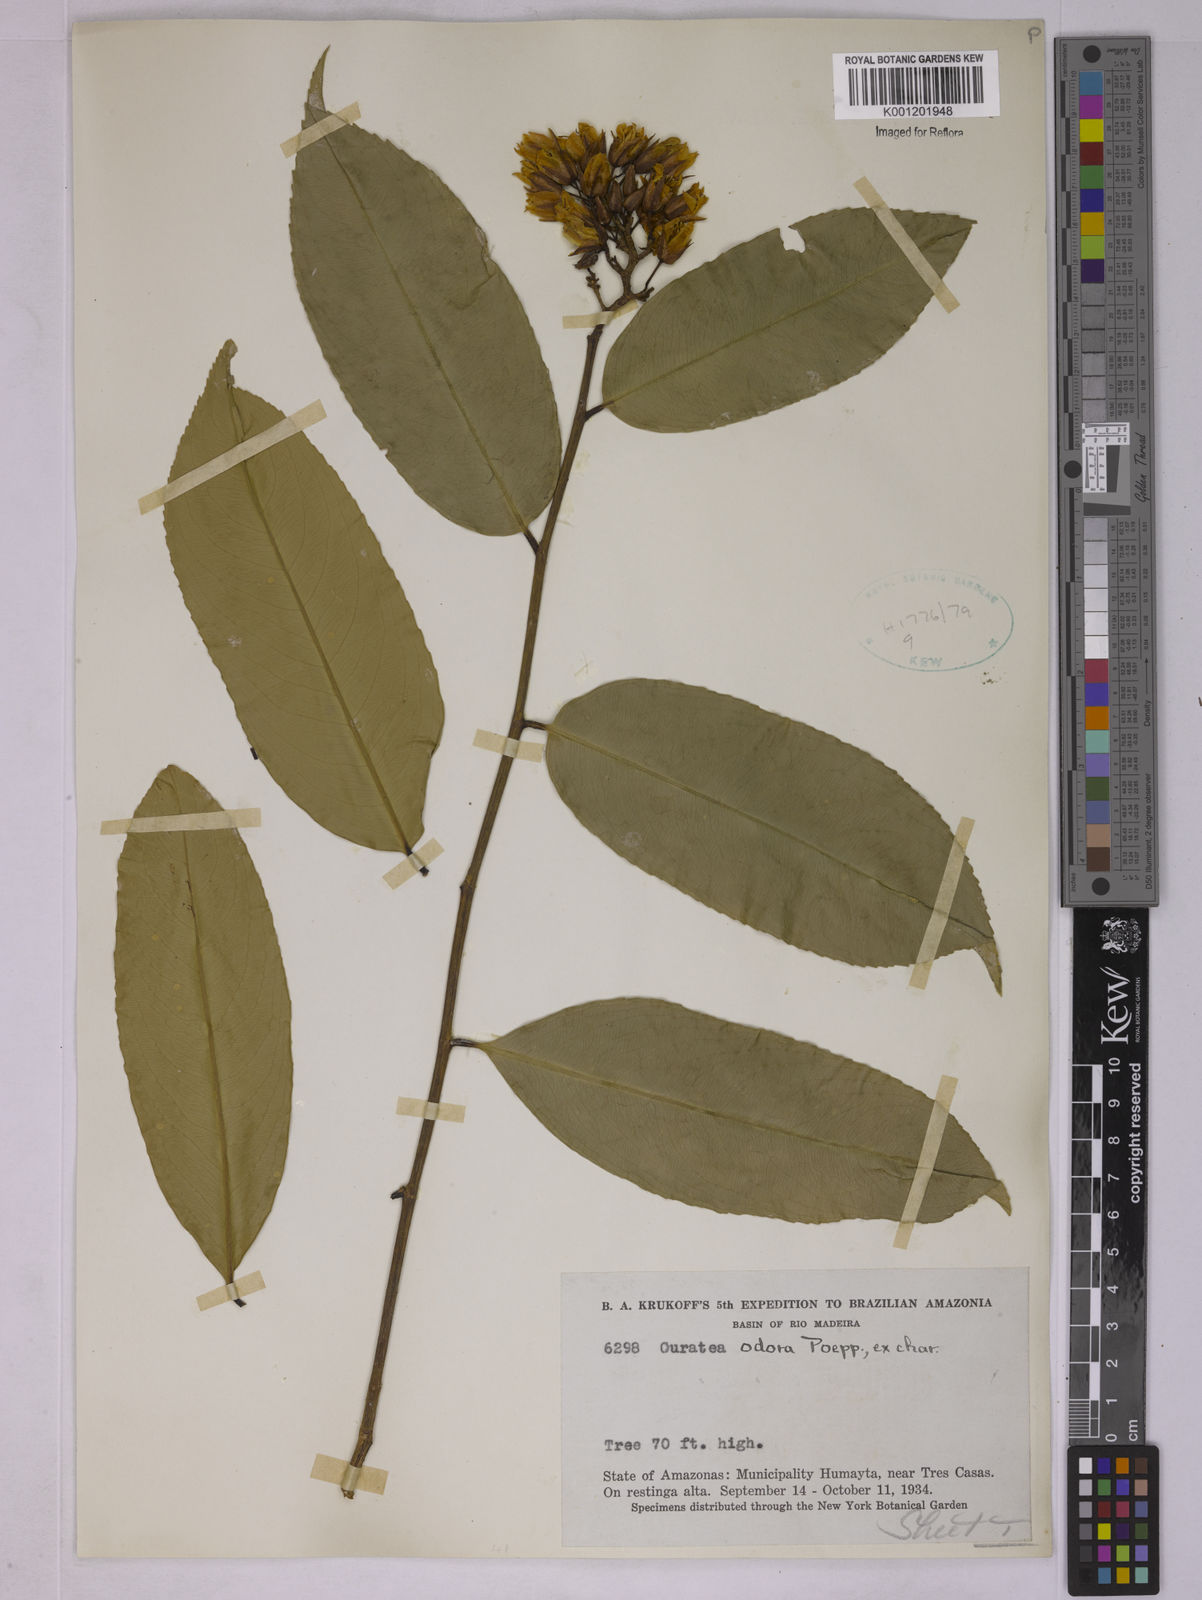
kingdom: Plantae
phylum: Tracheophyta
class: Magnoliopsida
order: Malpighiales
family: Ochnaceae
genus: Ouratea
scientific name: Ouratea superba
